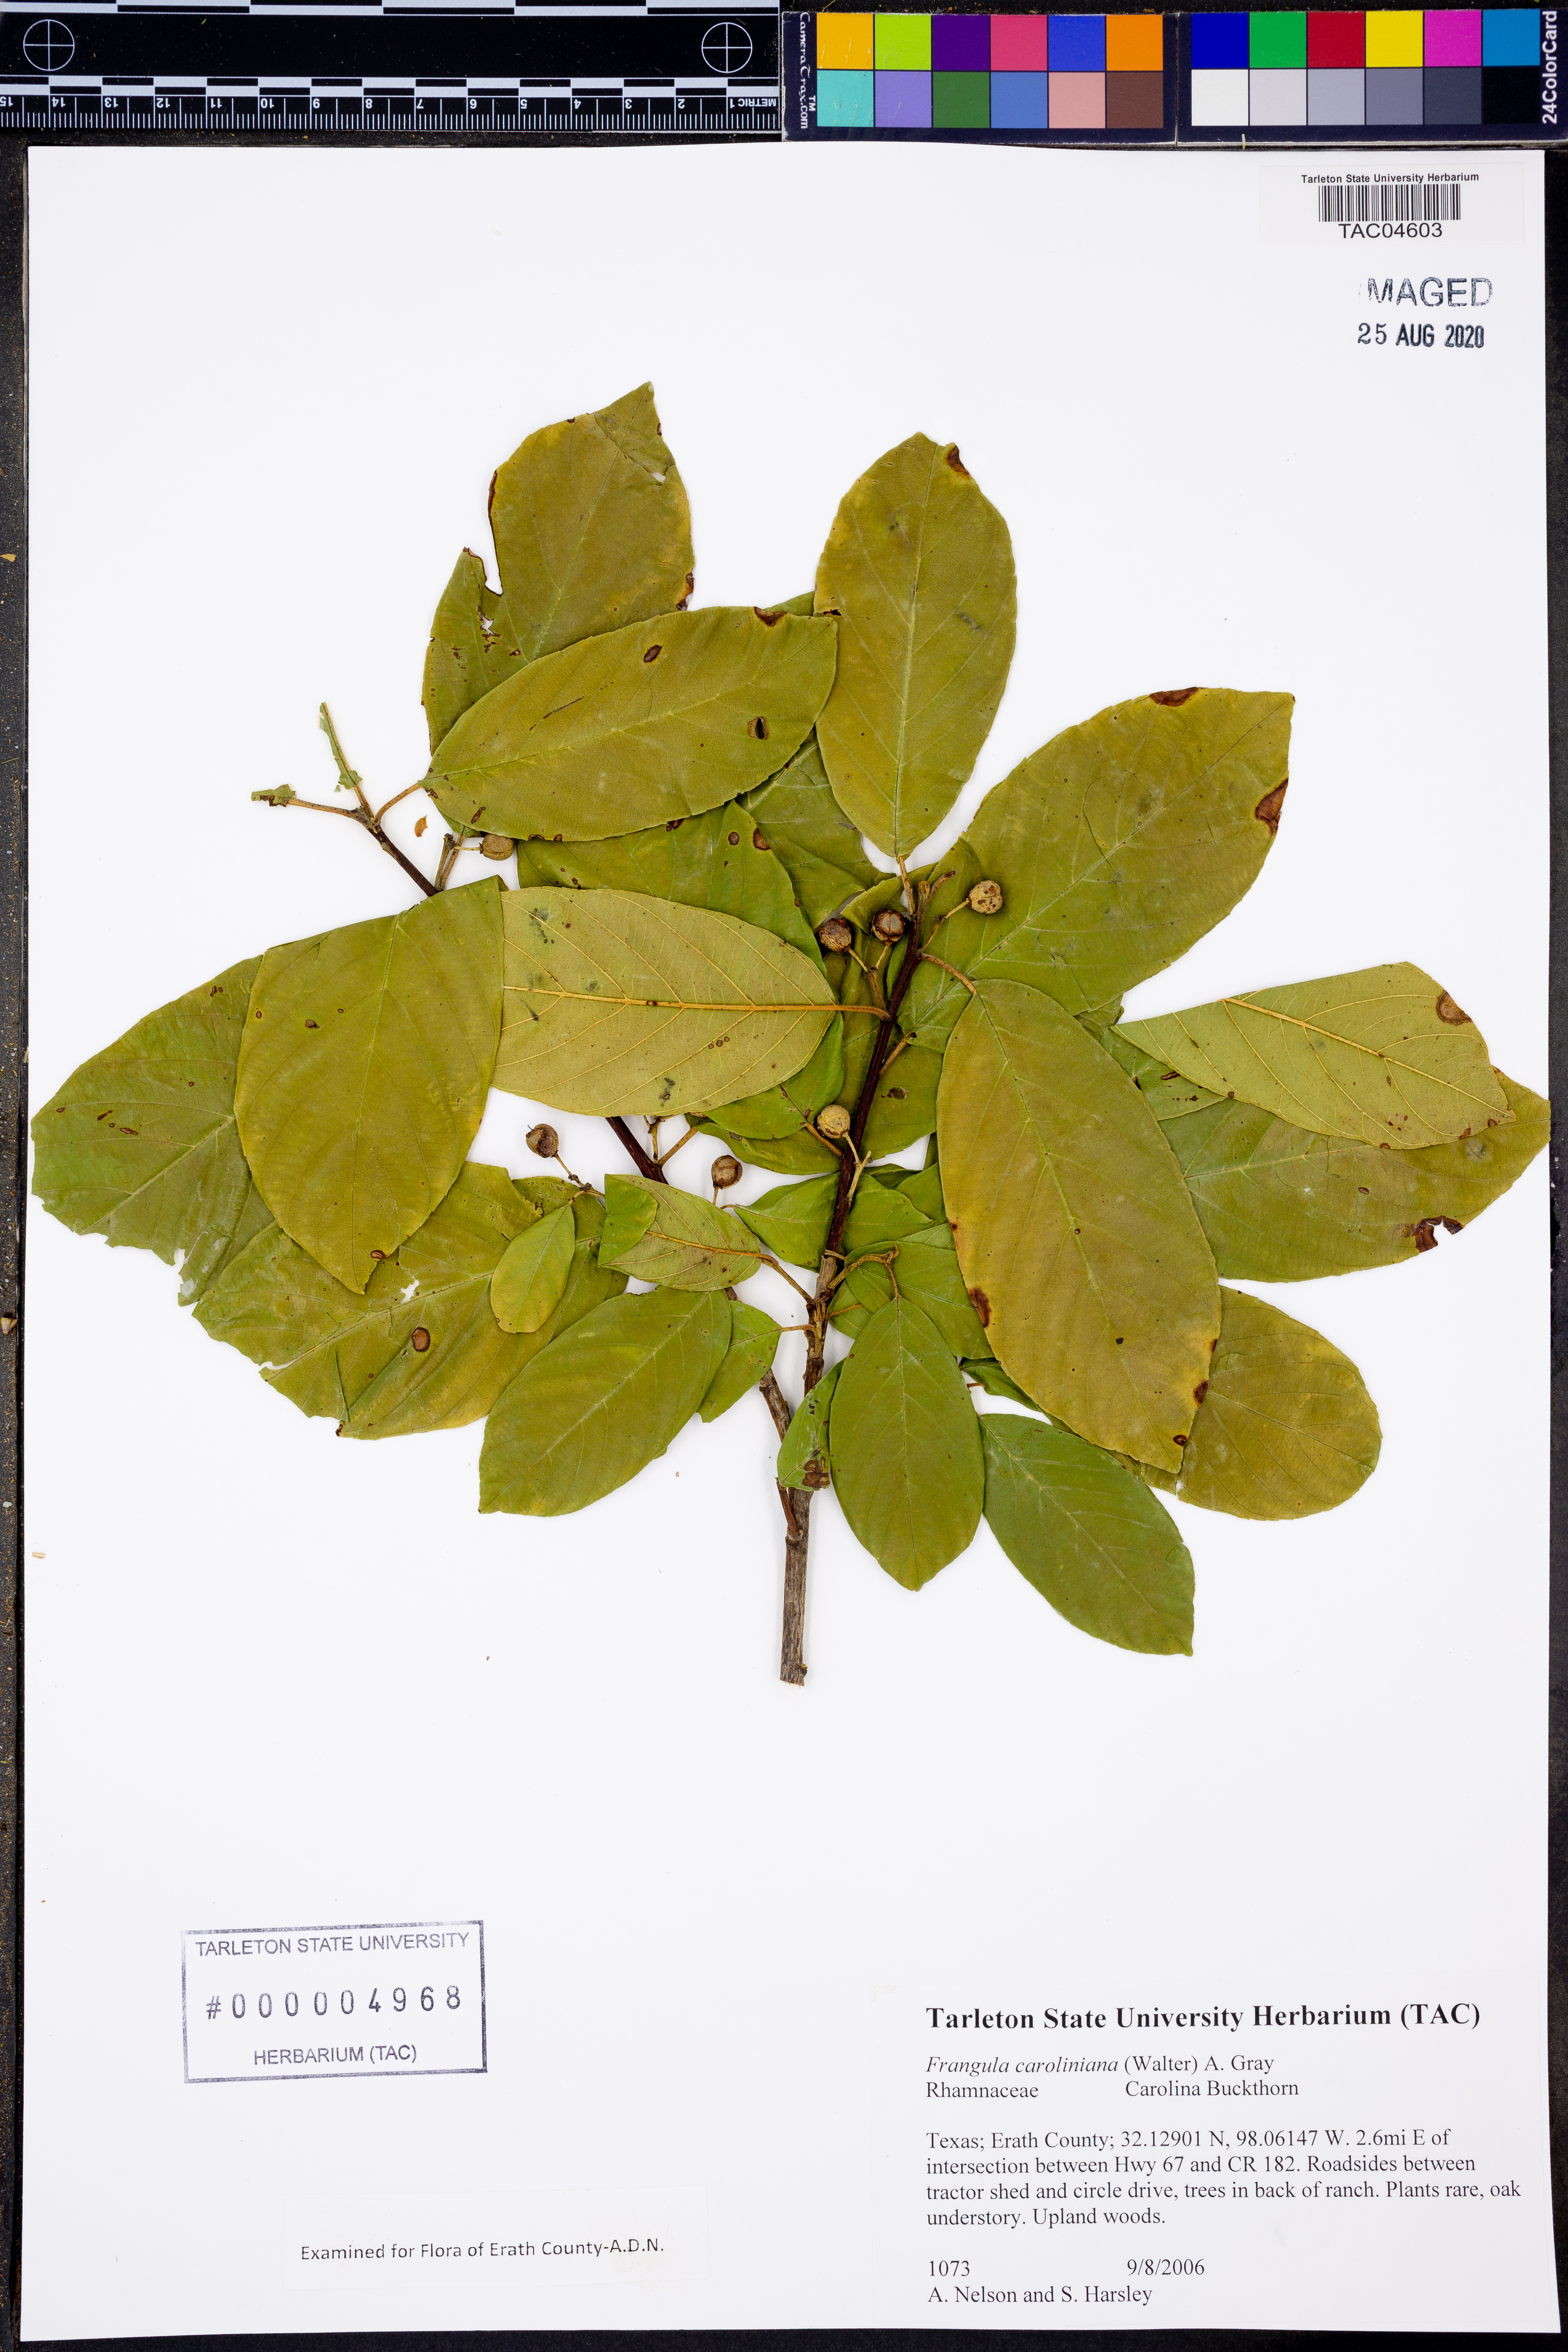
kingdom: Plantae
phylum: Tracheophyta
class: Magnoliopsida
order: Rosales
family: Rhamnaceae
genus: Frangula
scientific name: Frangula caroliniana
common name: Carolina buckthorn
